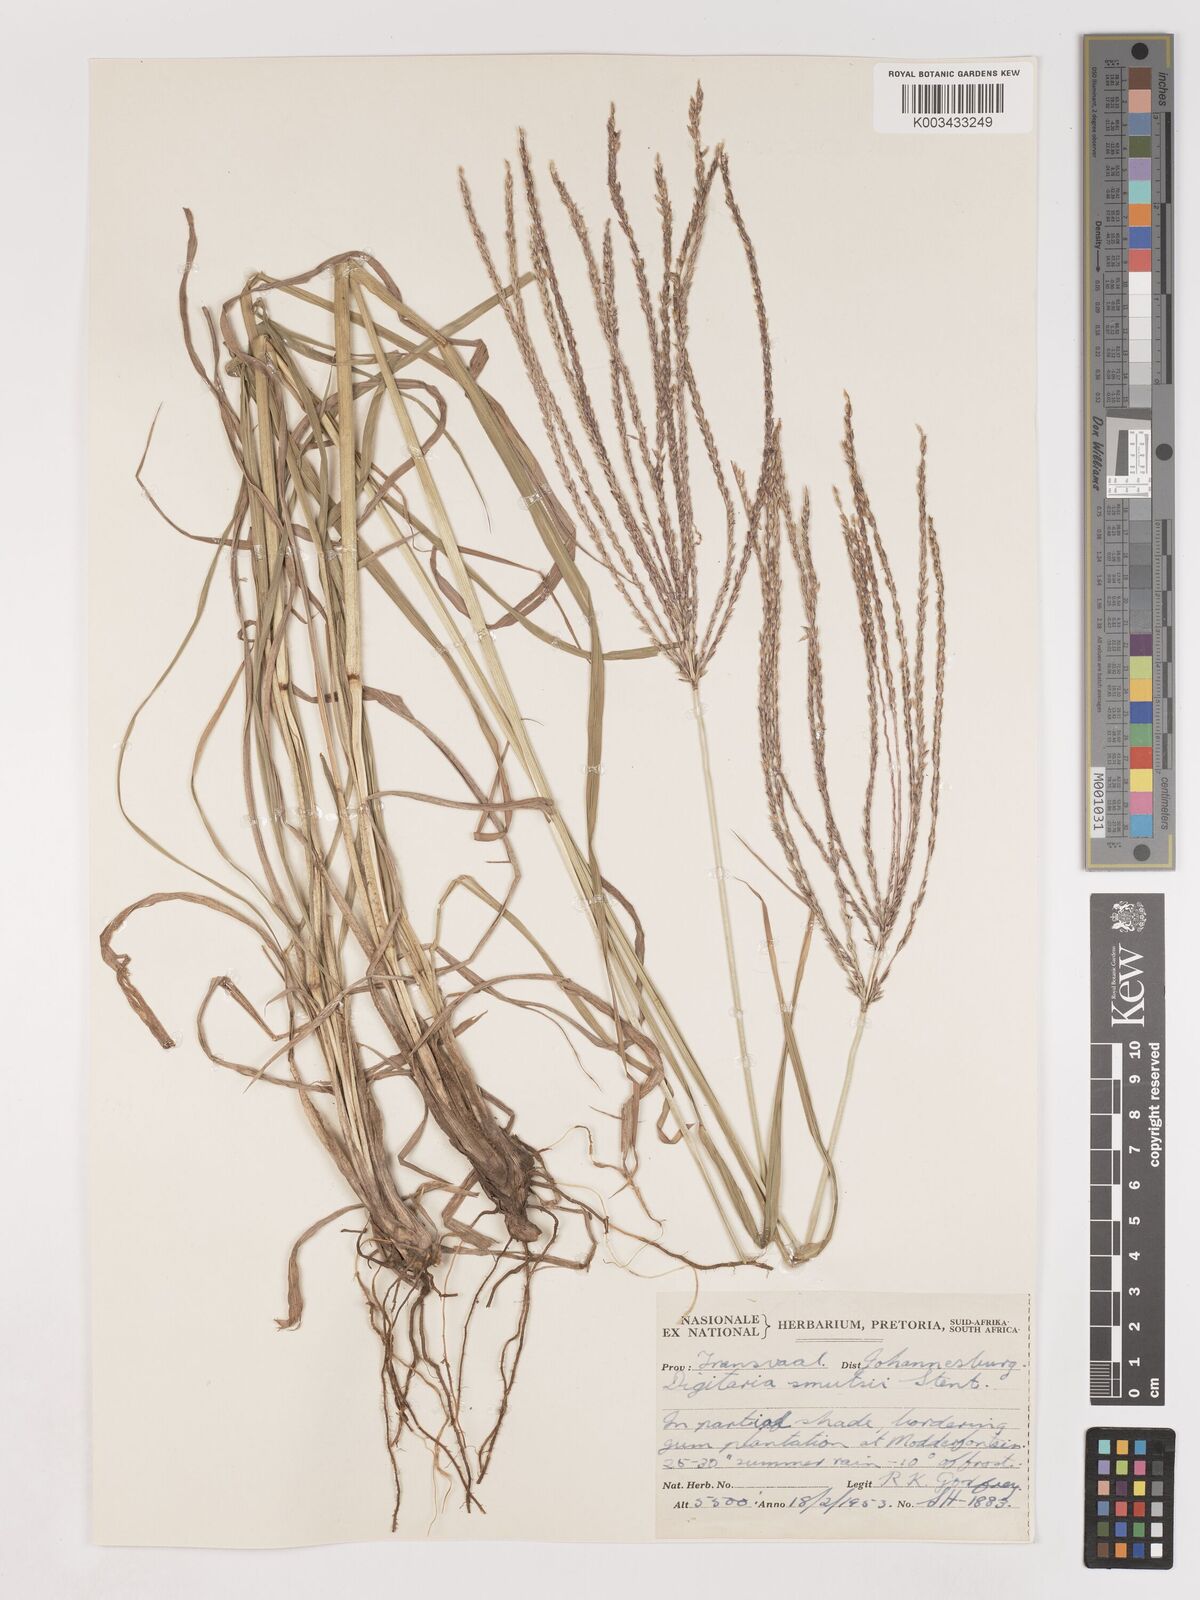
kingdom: Plantae
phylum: Tracheophyta
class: Liliopsida
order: Poales
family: Poaceae
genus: Digitaria
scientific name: Digitaria eriantha
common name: Digitgrass
